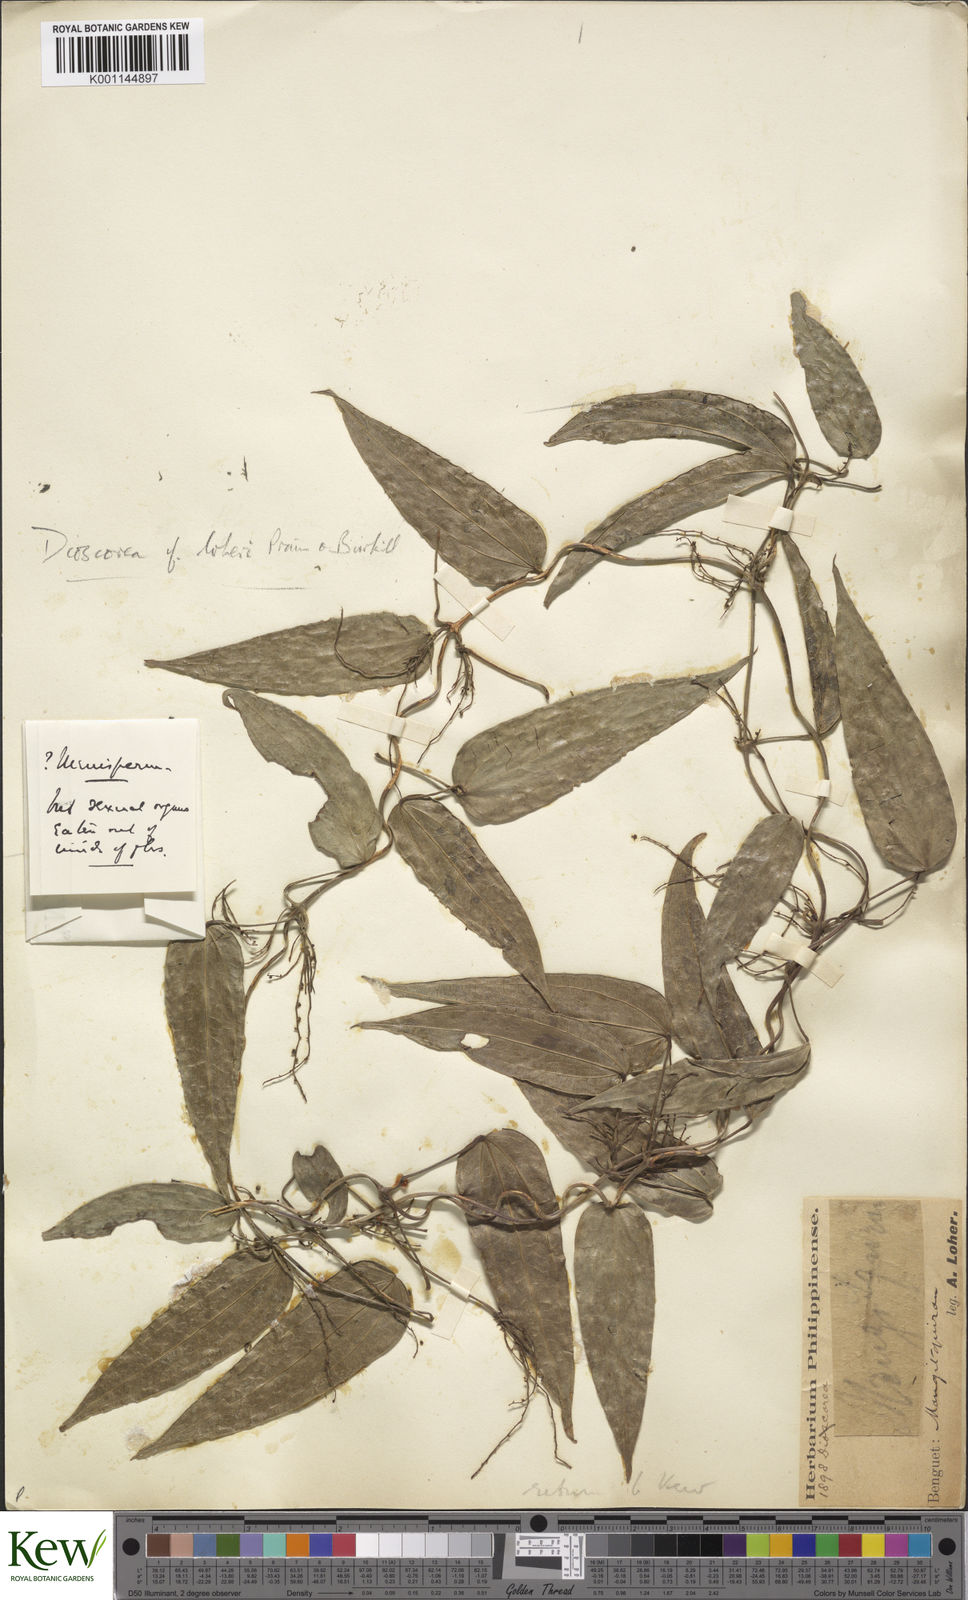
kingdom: Plantae
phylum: Tracheophyta
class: Liliopsida
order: Dioscoreales
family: Dioscoreaceae
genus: Dioscorea
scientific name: Dioscorea loheri
